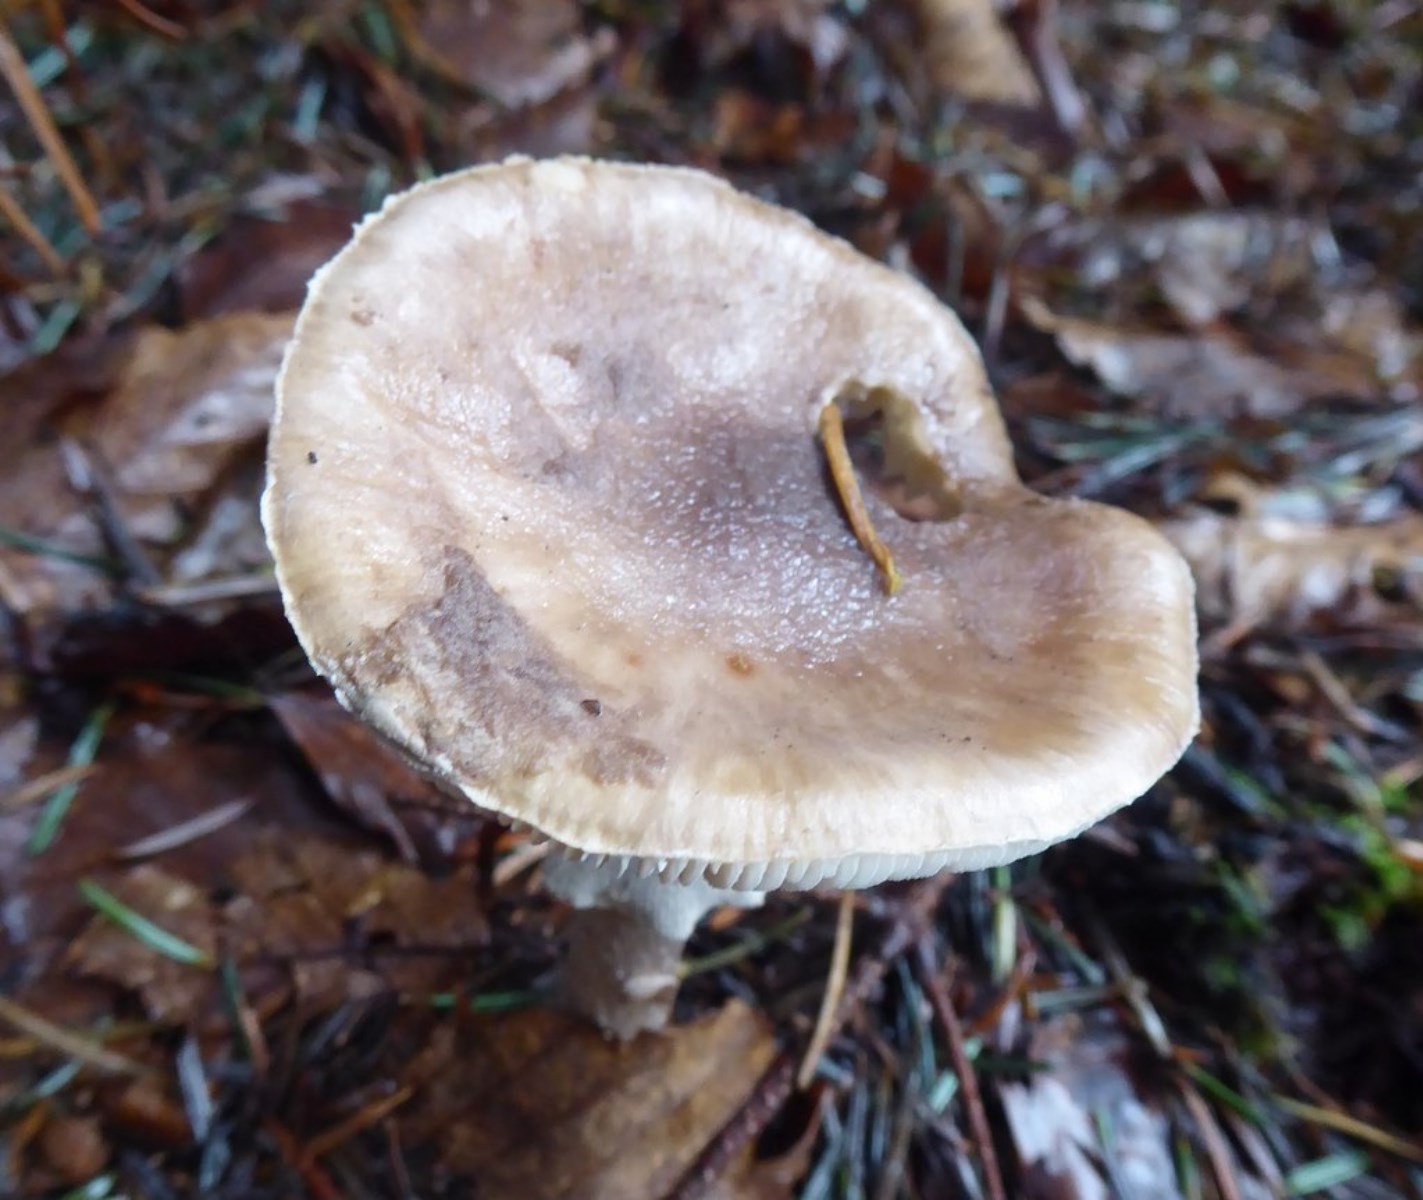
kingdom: Fungi
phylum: Basidiomycota
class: Agaricomycetes
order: Agaricales
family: Amanitaceae
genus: Amanita
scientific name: Amanita porphyria
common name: porfyr-fluesvamp
